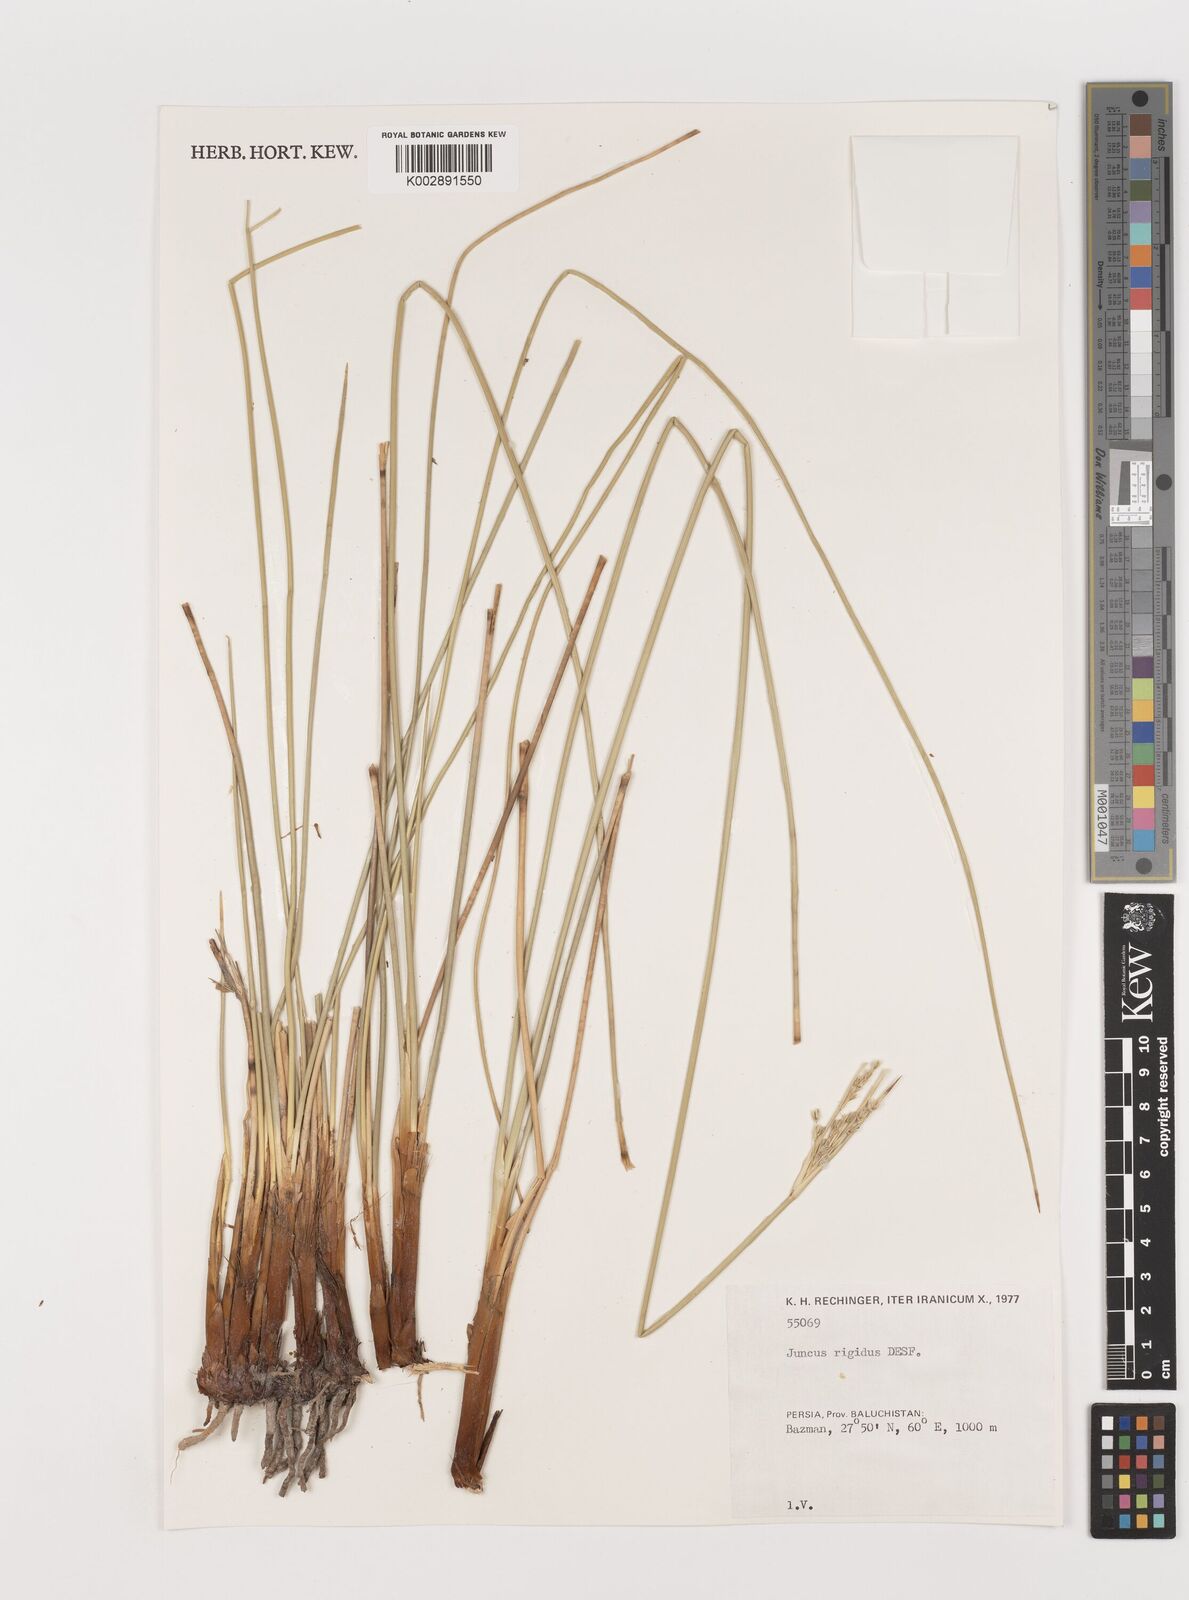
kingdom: Plantae
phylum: Tracheophyta
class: Liliopsida
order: Poales
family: Juncaceae
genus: Juncus
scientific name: Juncus rigidus
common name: Hard sea rush
